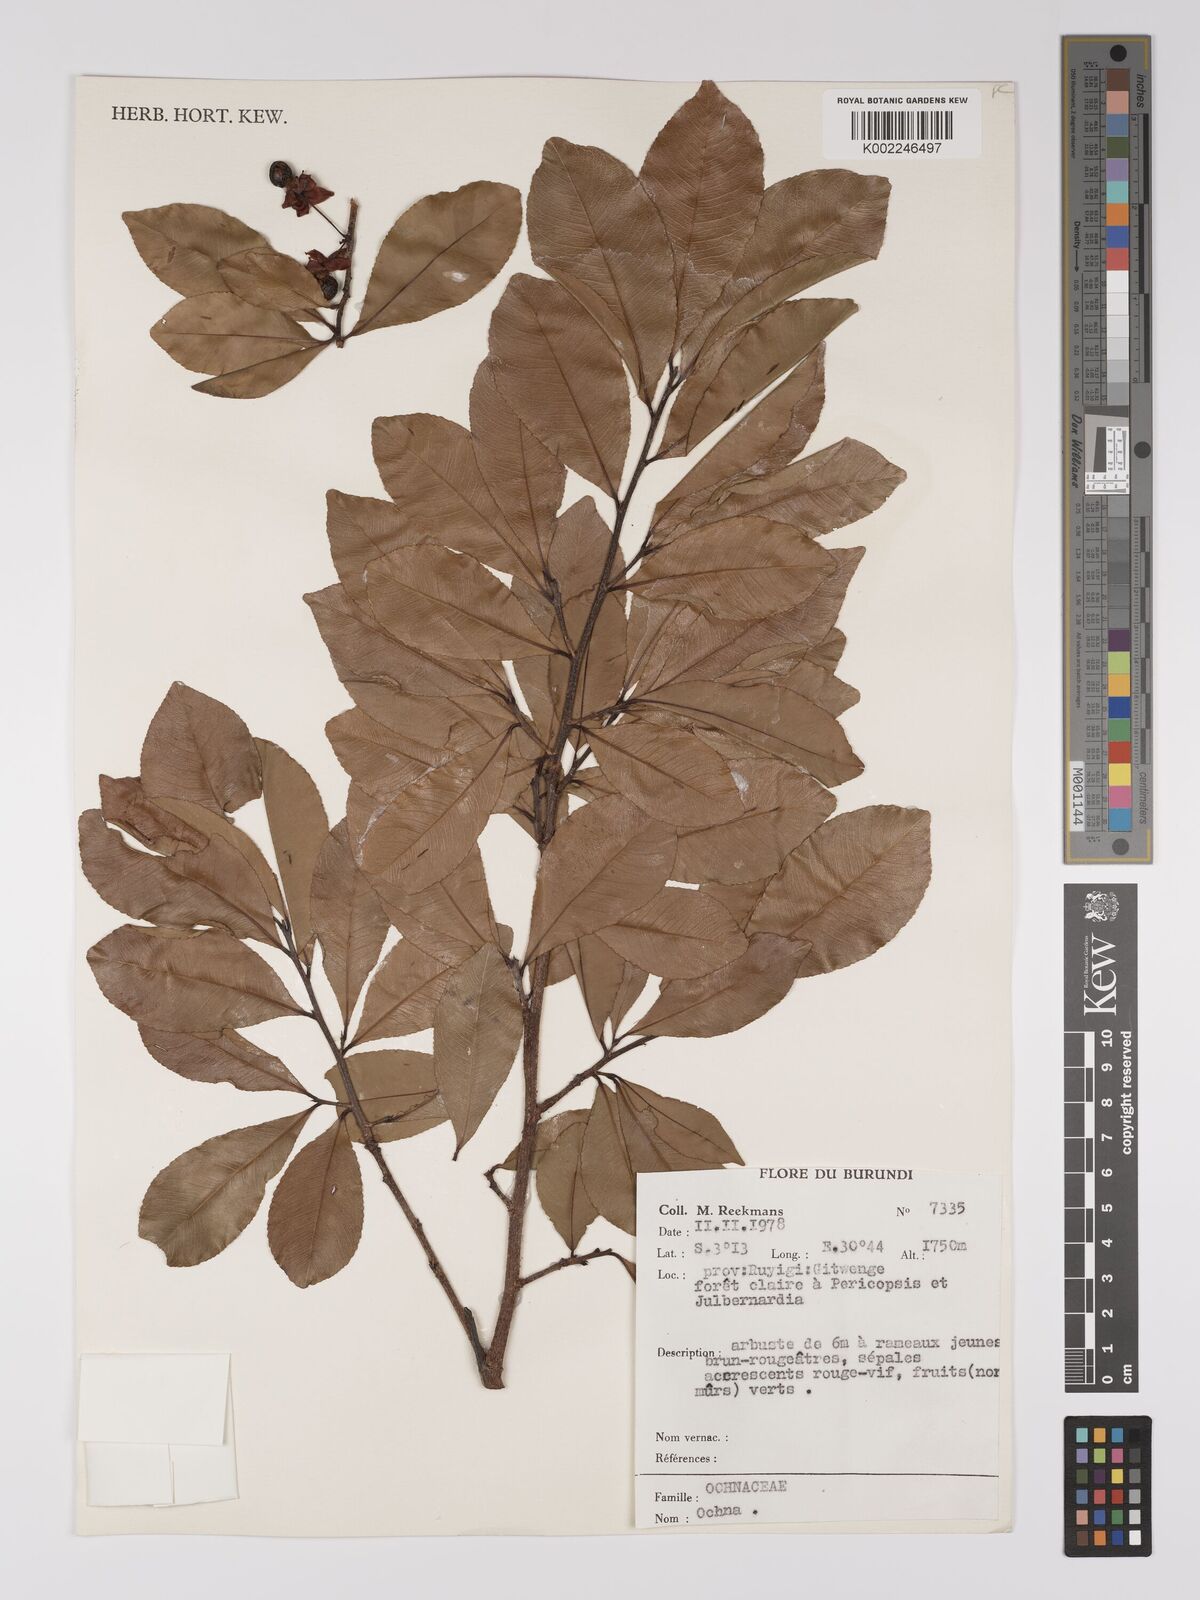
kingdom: Plantae
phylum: Tracheophyta
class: Magnoliopsida
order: Malpighiales
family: Ochnaceae
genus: Ochna
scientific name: Ochna
